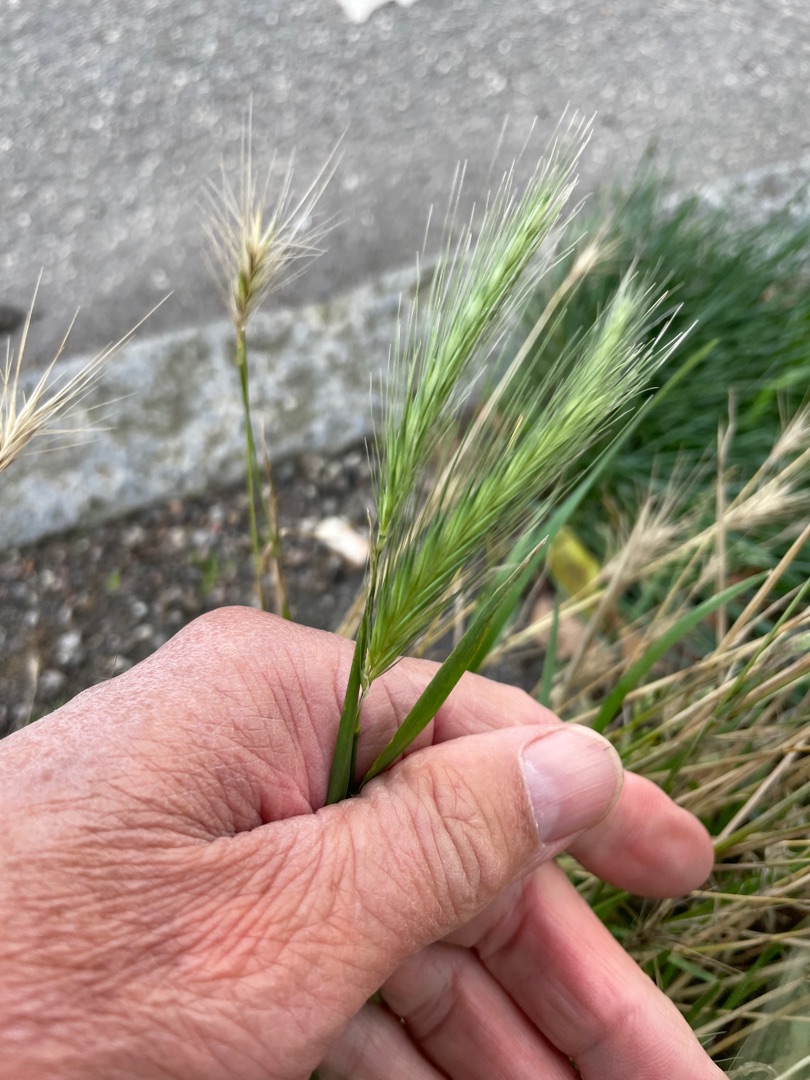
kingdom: Plantae
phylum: Tracheophyta
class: Liliopsida
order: Poales
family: Poaceae
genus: Hordeum
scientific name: Hordeum murinum
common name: Gold byg
